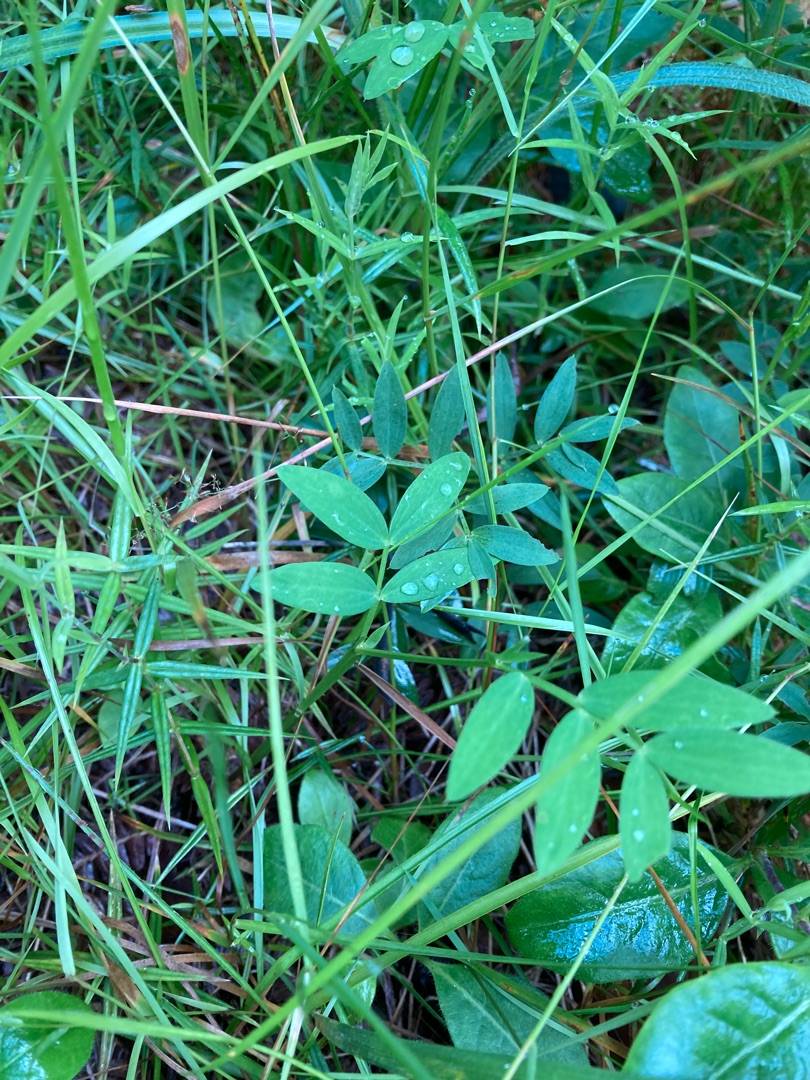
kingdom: Plantae
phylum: Tracheophyta
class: Magnoliopsida
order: Fabales
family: Fabaceae
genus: Lathyrus
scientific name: Lathyrus linifolius
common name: Krat-fladbælg
